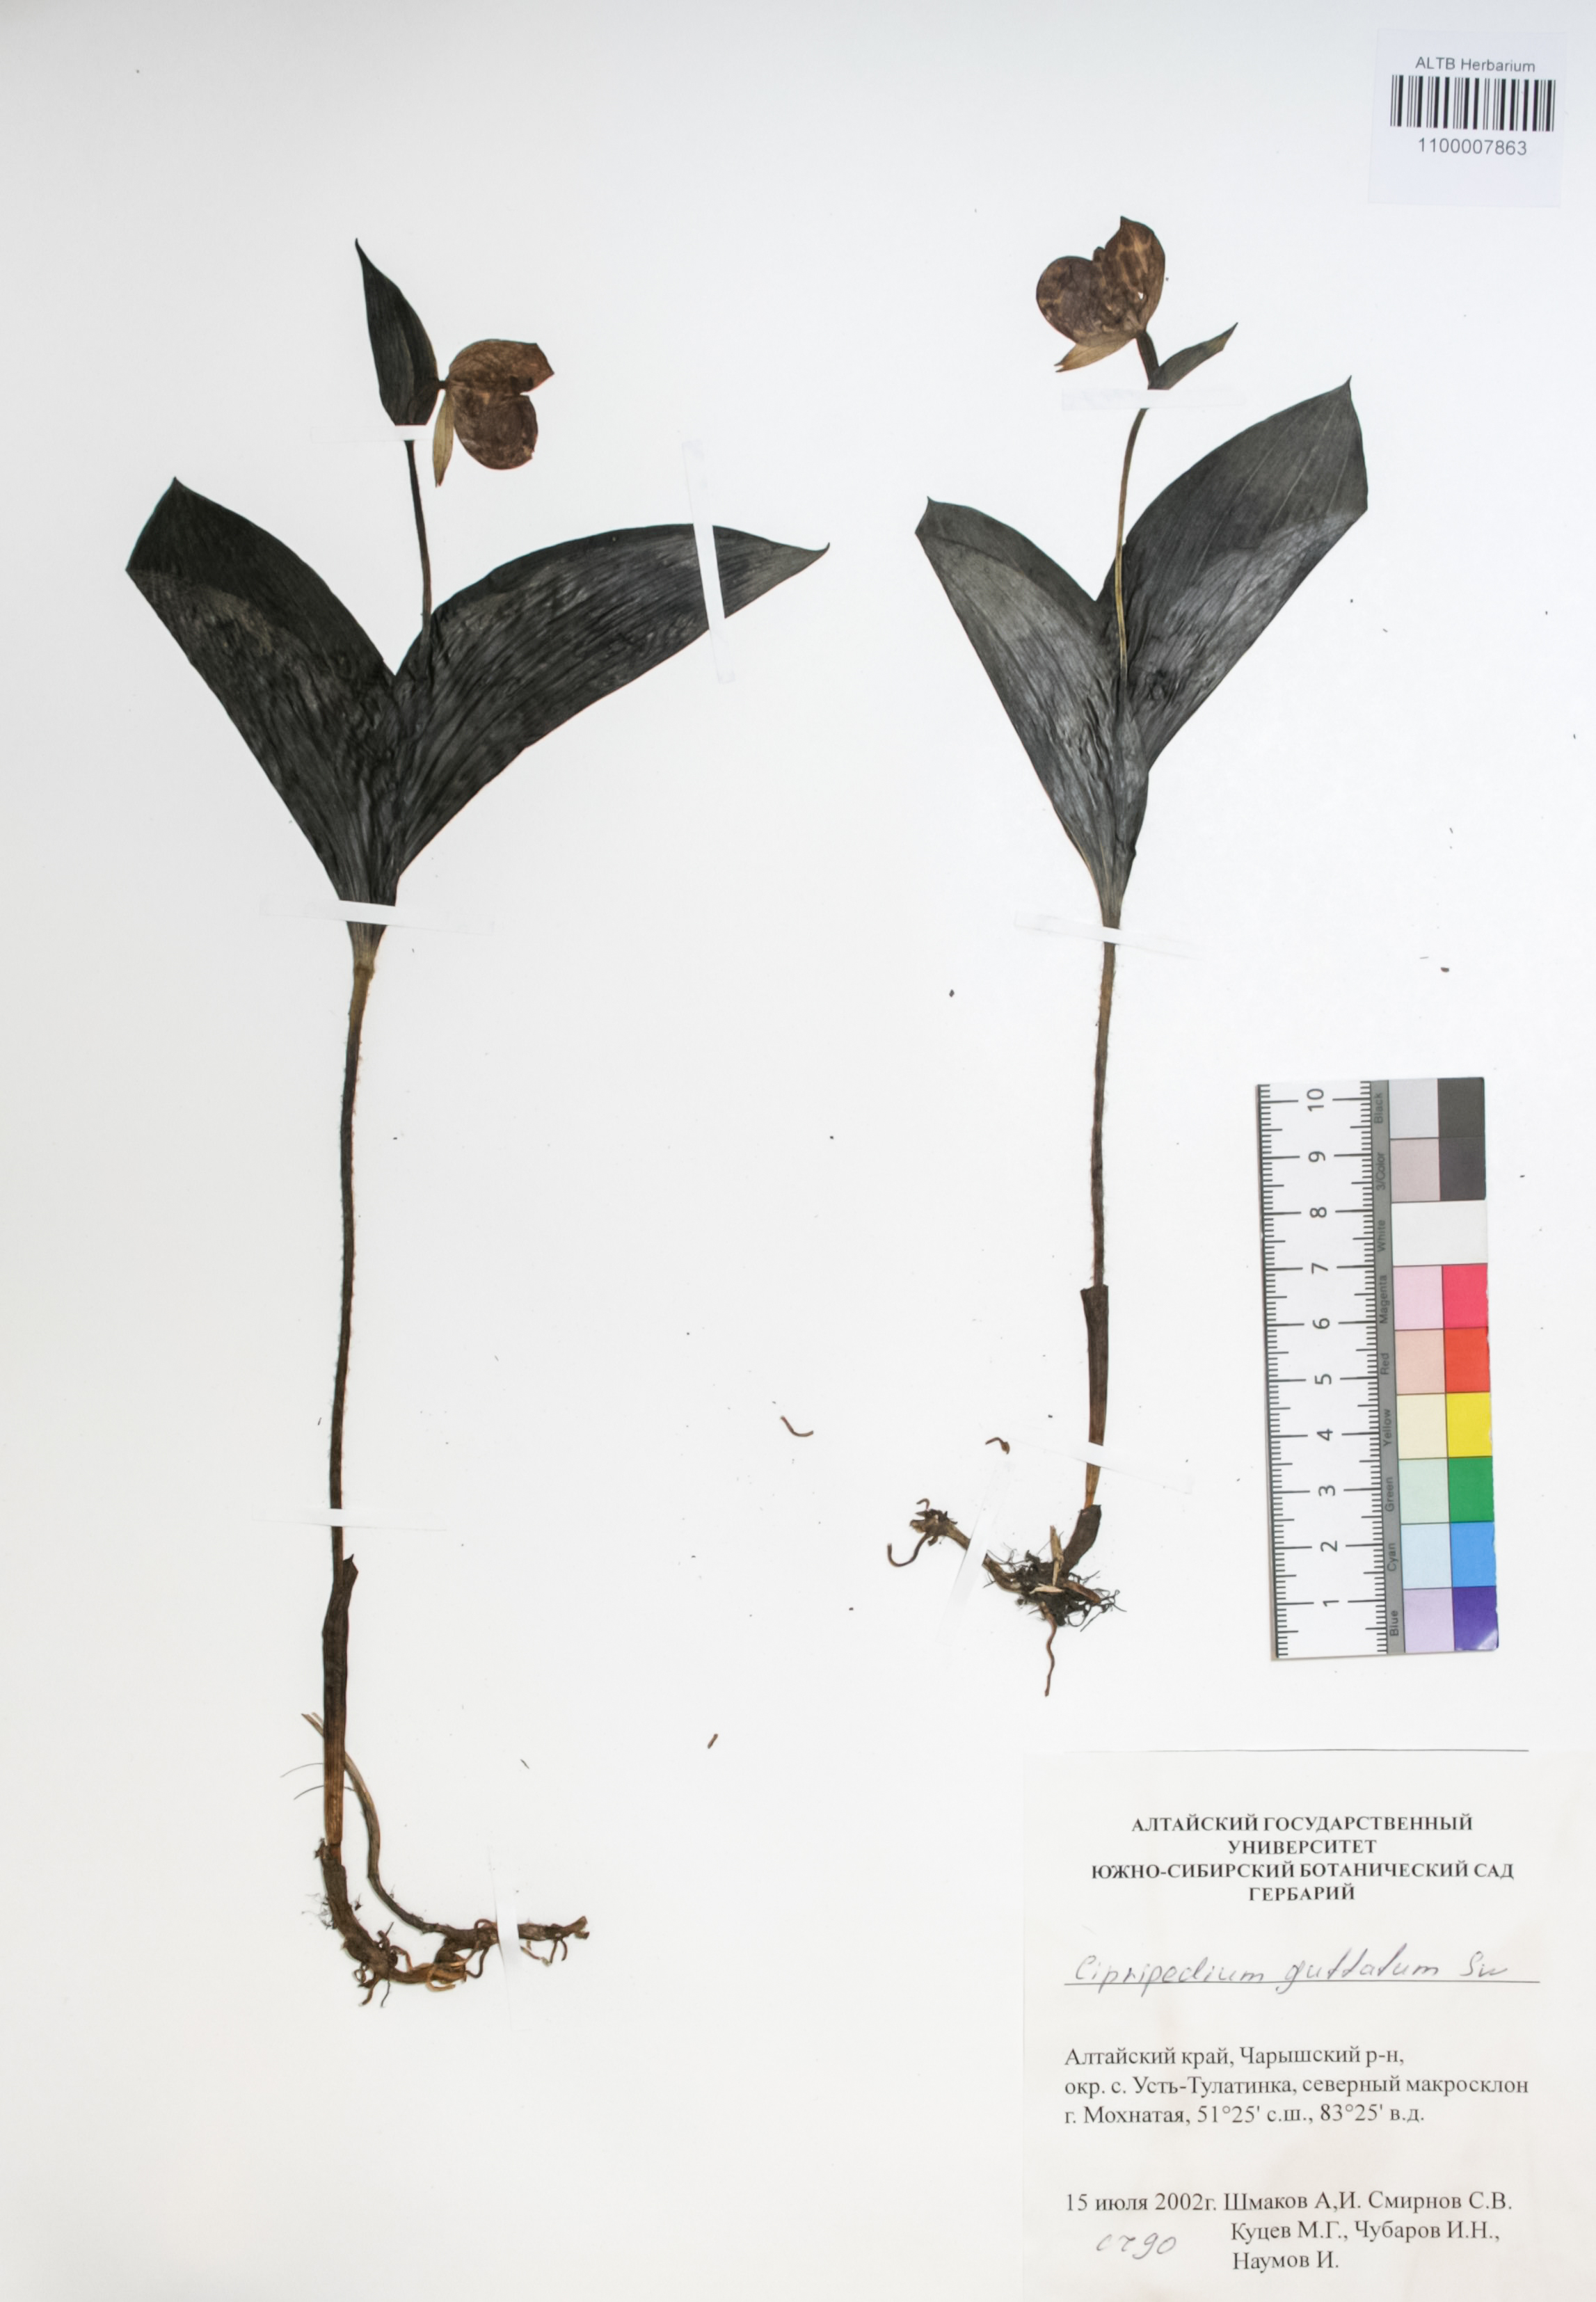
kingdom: Plantae
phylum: Tracheophyta
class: Liliopsida
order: Asparagales
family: Orchidaceae
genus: Cypripedium
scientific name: Cypripedium guttatum
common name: Pink lady slipper
